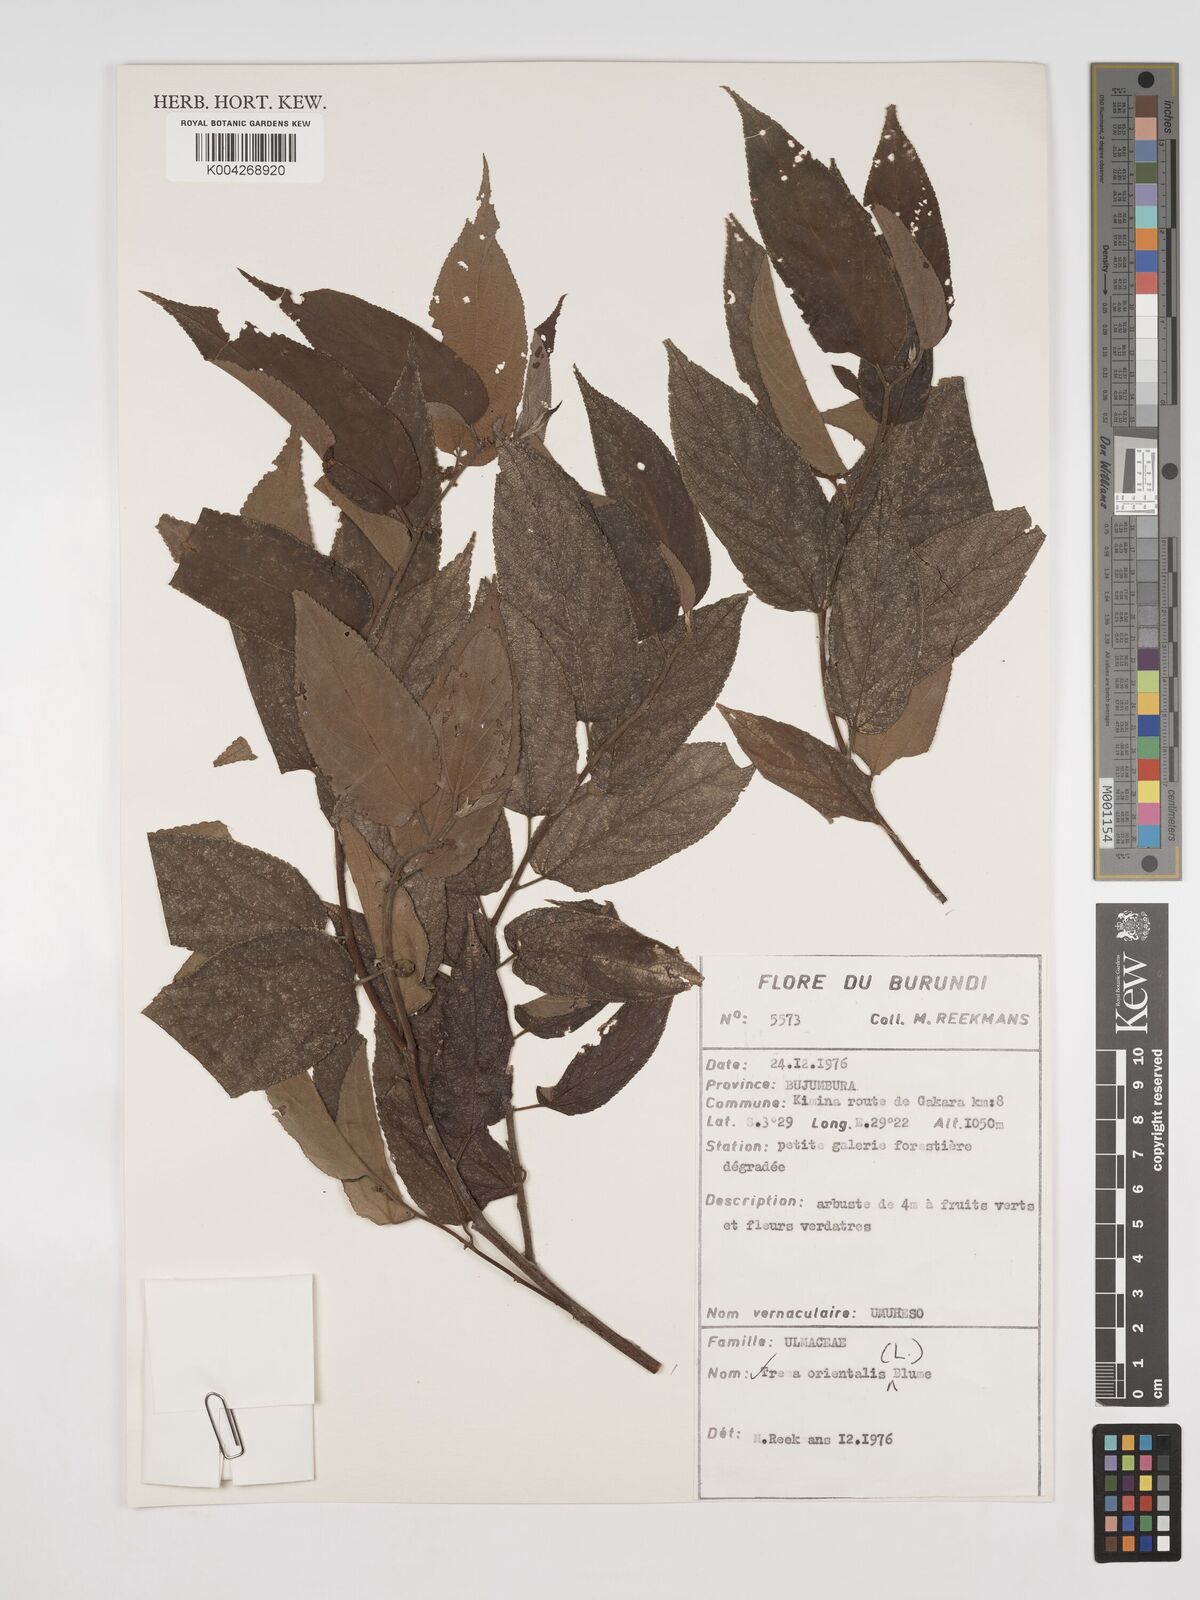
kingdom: Plantae
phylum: Tracheophyta
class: Magnoliopsida
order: Rosales
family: Cannabaceae
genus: Trema
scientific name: Trema orientale
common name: Indian charcoal tree
